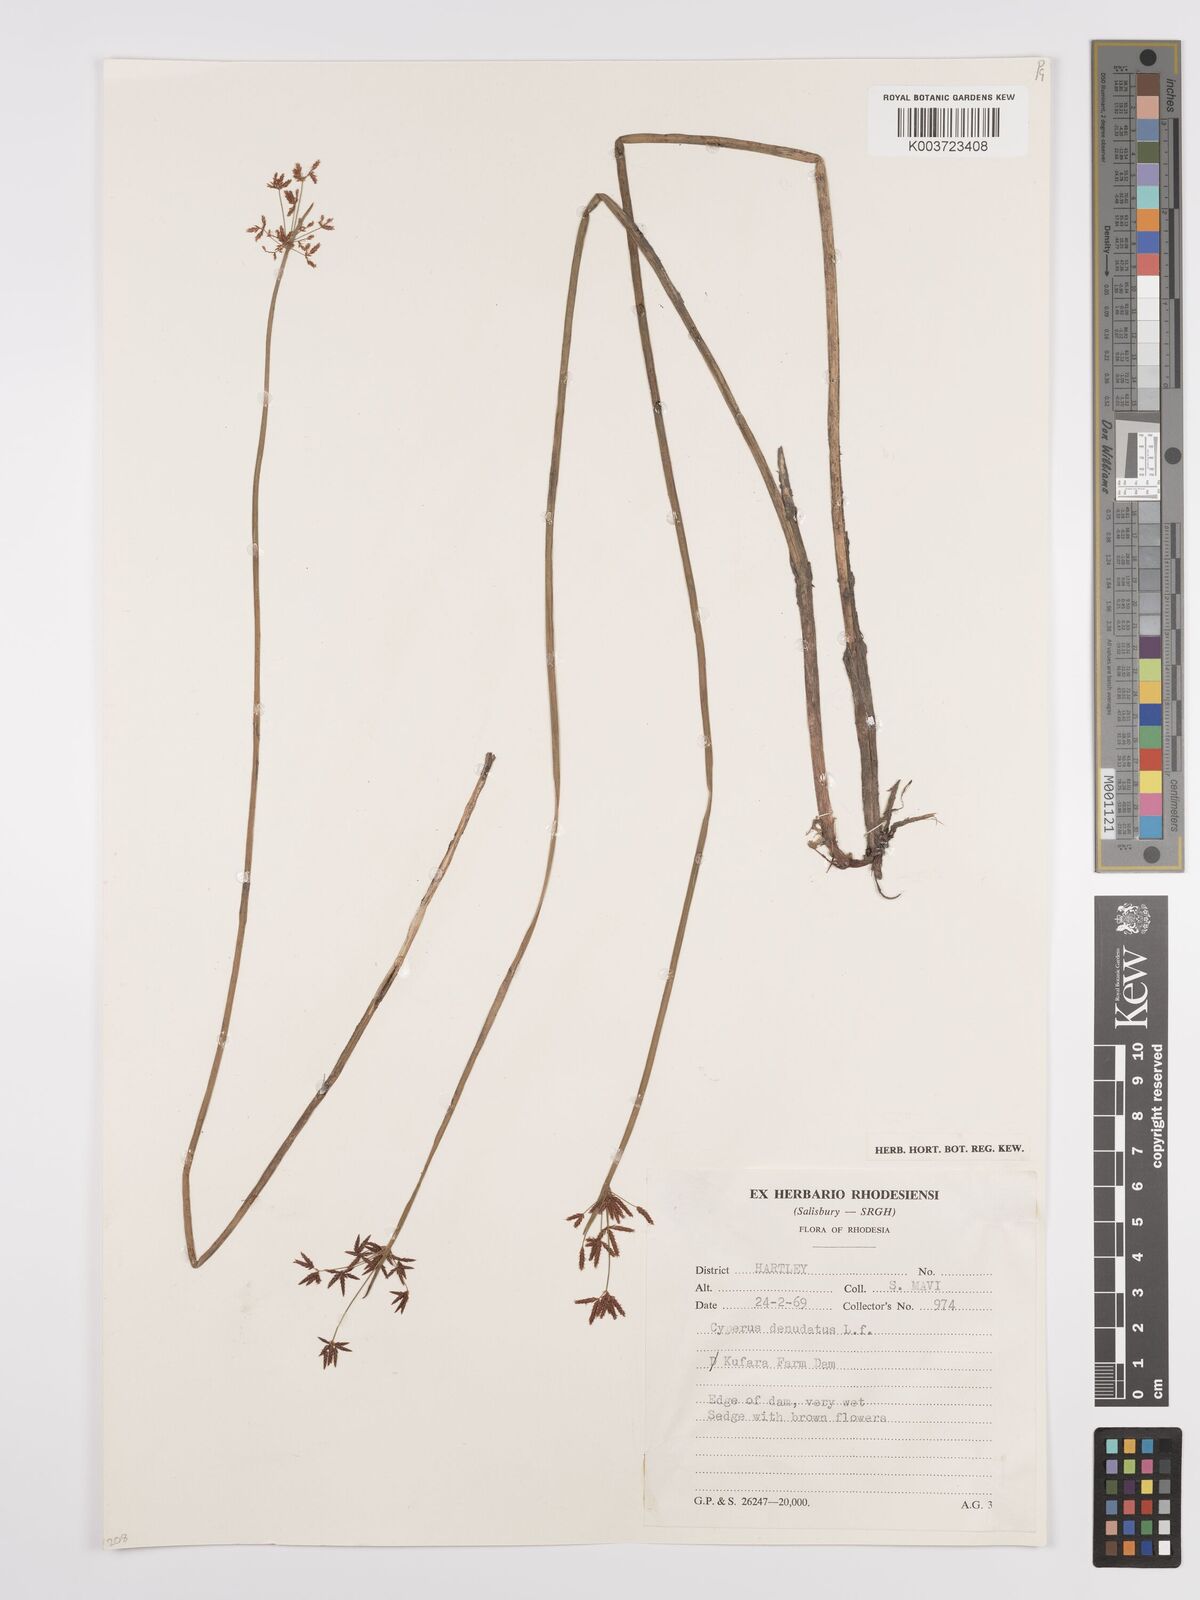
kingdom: Plantae
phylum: Tracheophyta
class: Liliopsida
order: Poales
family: Cyperaceae
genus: Cyperus
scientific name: Cyperus denudatus
